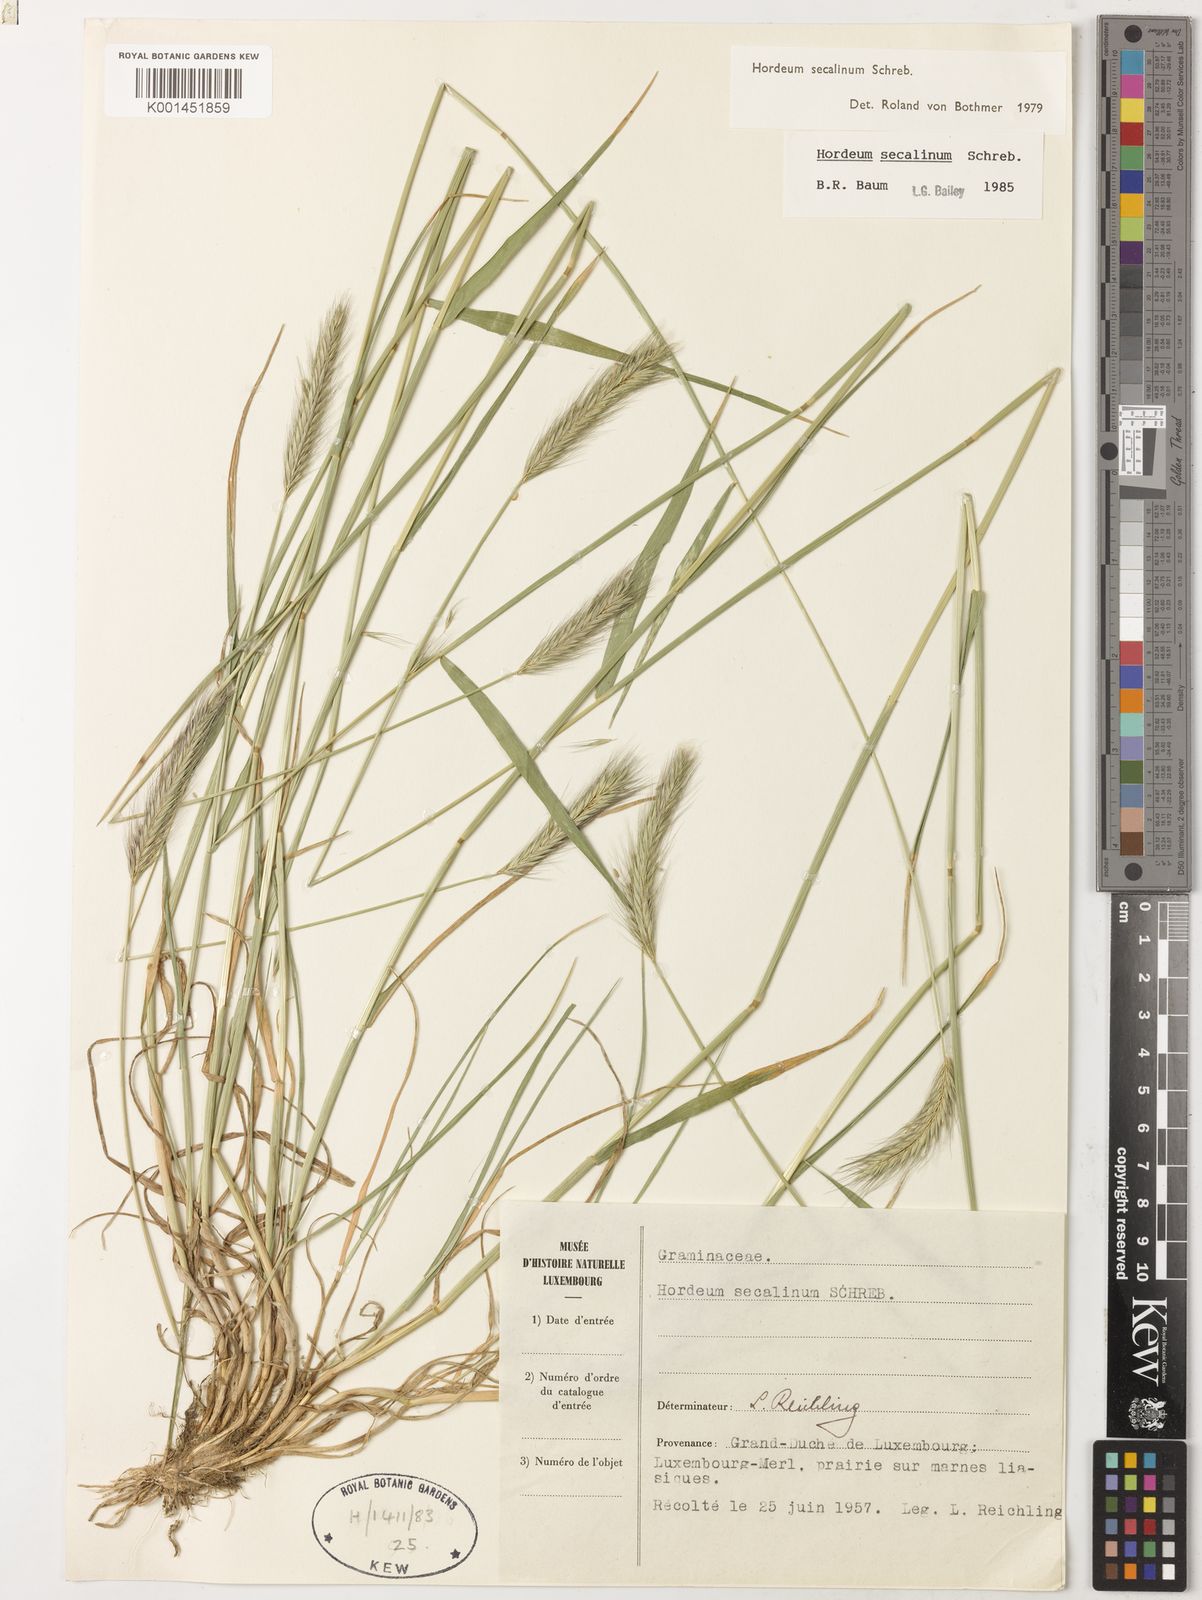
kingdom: Plantae
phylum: Tracheophyta
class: Liliopsida
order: Poales
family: Poaceae
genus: Hordeum
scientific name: Hordeum secalinum
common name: Meadow barley
